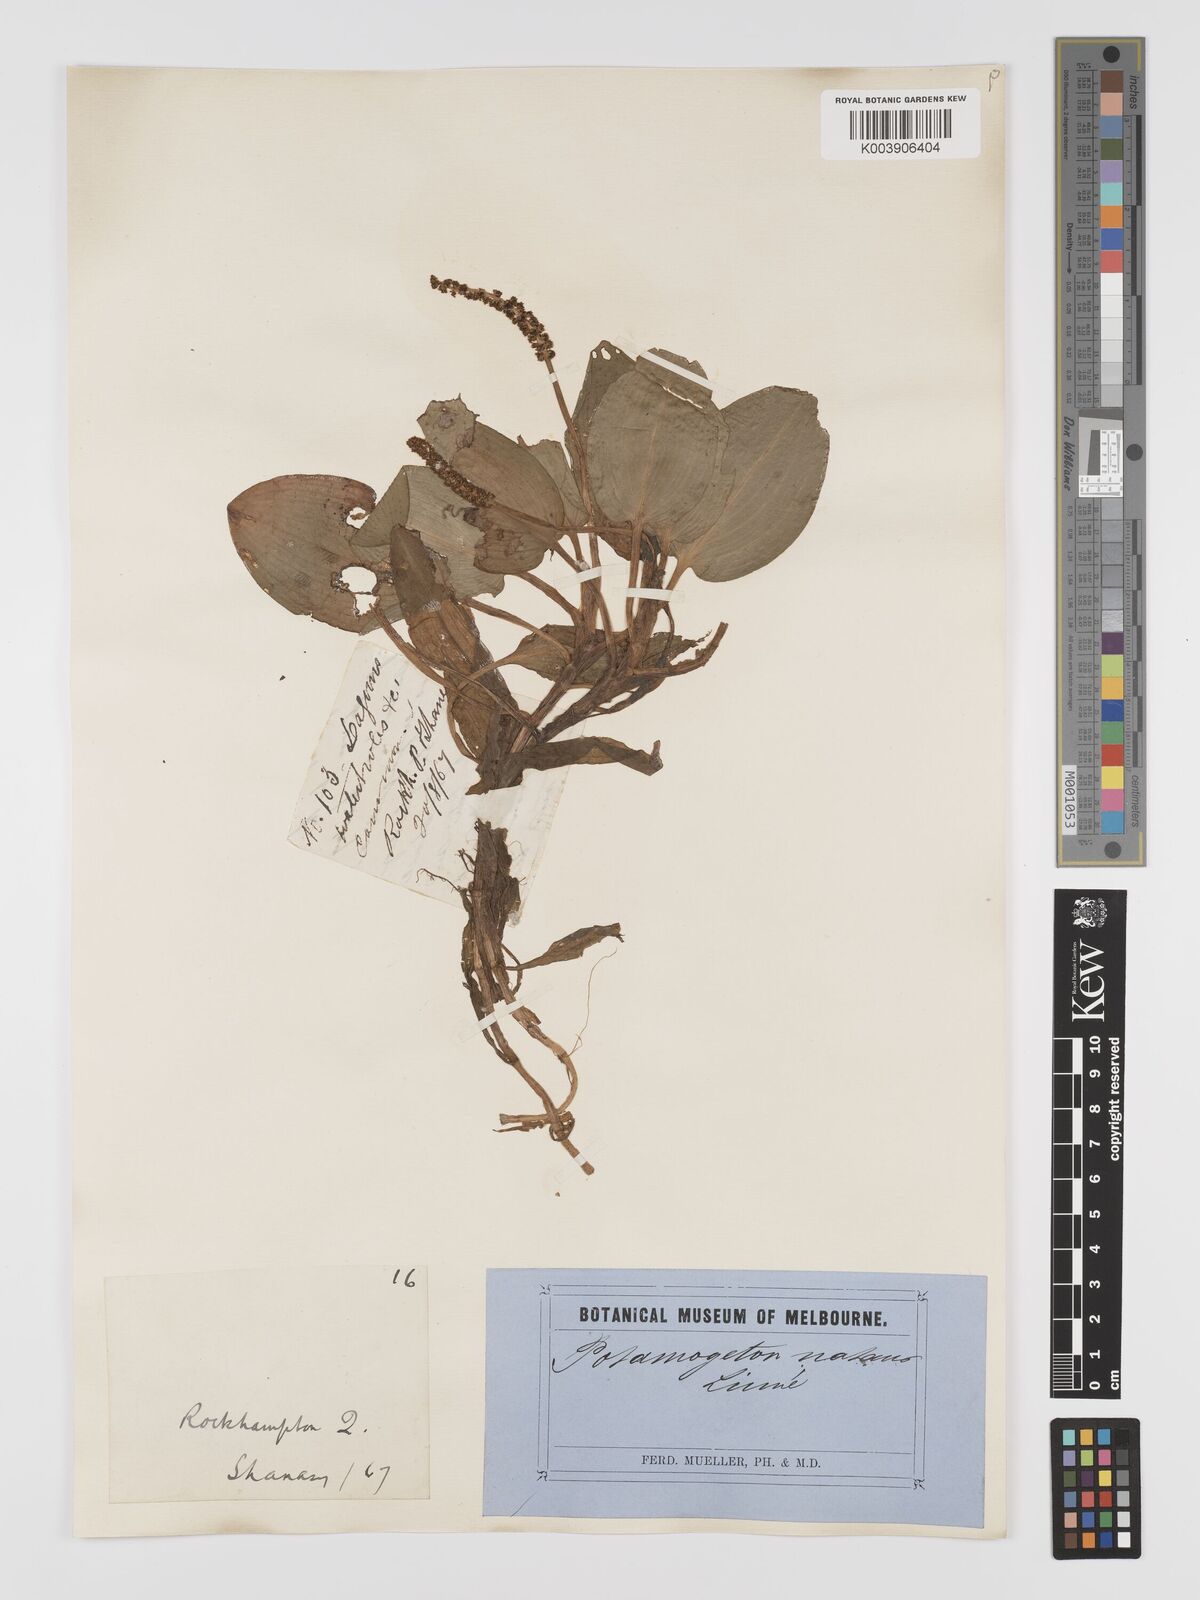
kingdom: Plantae
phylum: Tracheophyta
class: Liliopsida
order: Alismatales
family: Potamogetonaceae
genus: Potamogeton
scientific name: Potamogeton tricarinatus
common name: Pondweed
